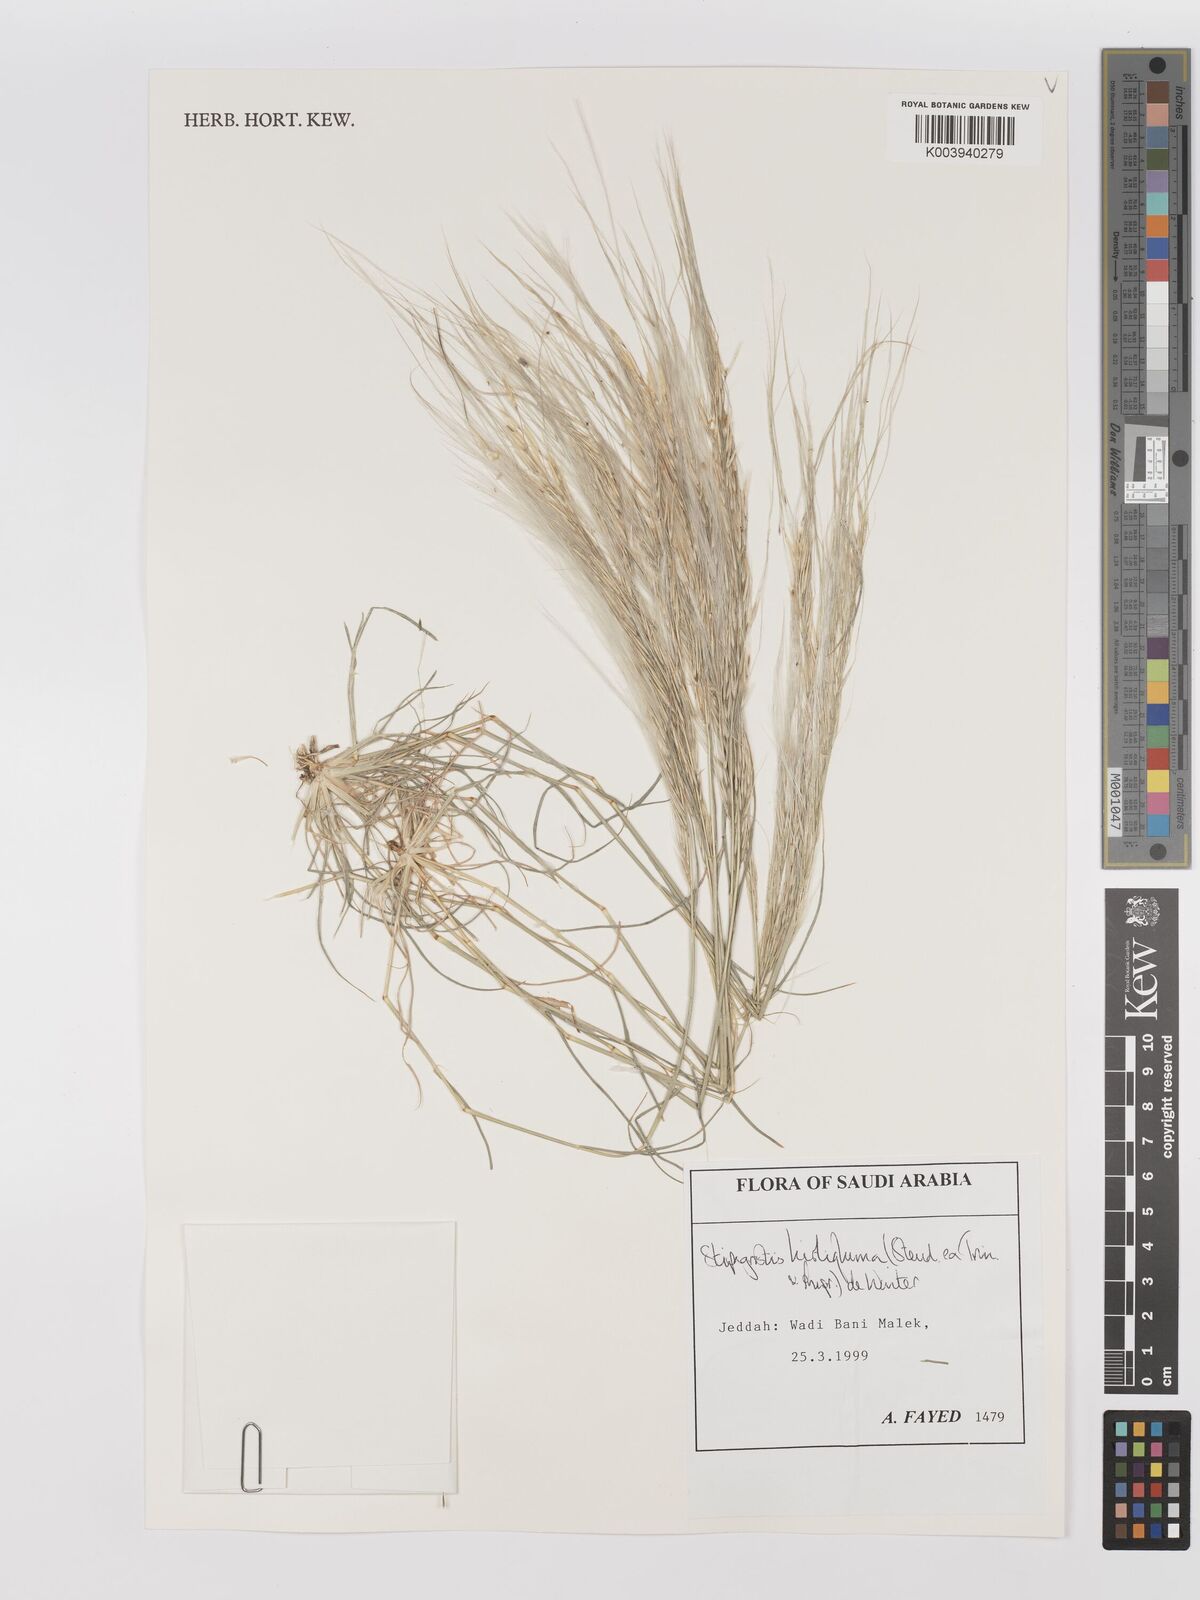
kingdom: Plantae
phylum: Tracheophyta
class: Liliopsida
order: Poales
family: Poaceae
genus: Stipagrostis
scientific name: Stipagrostis hirtigluma
